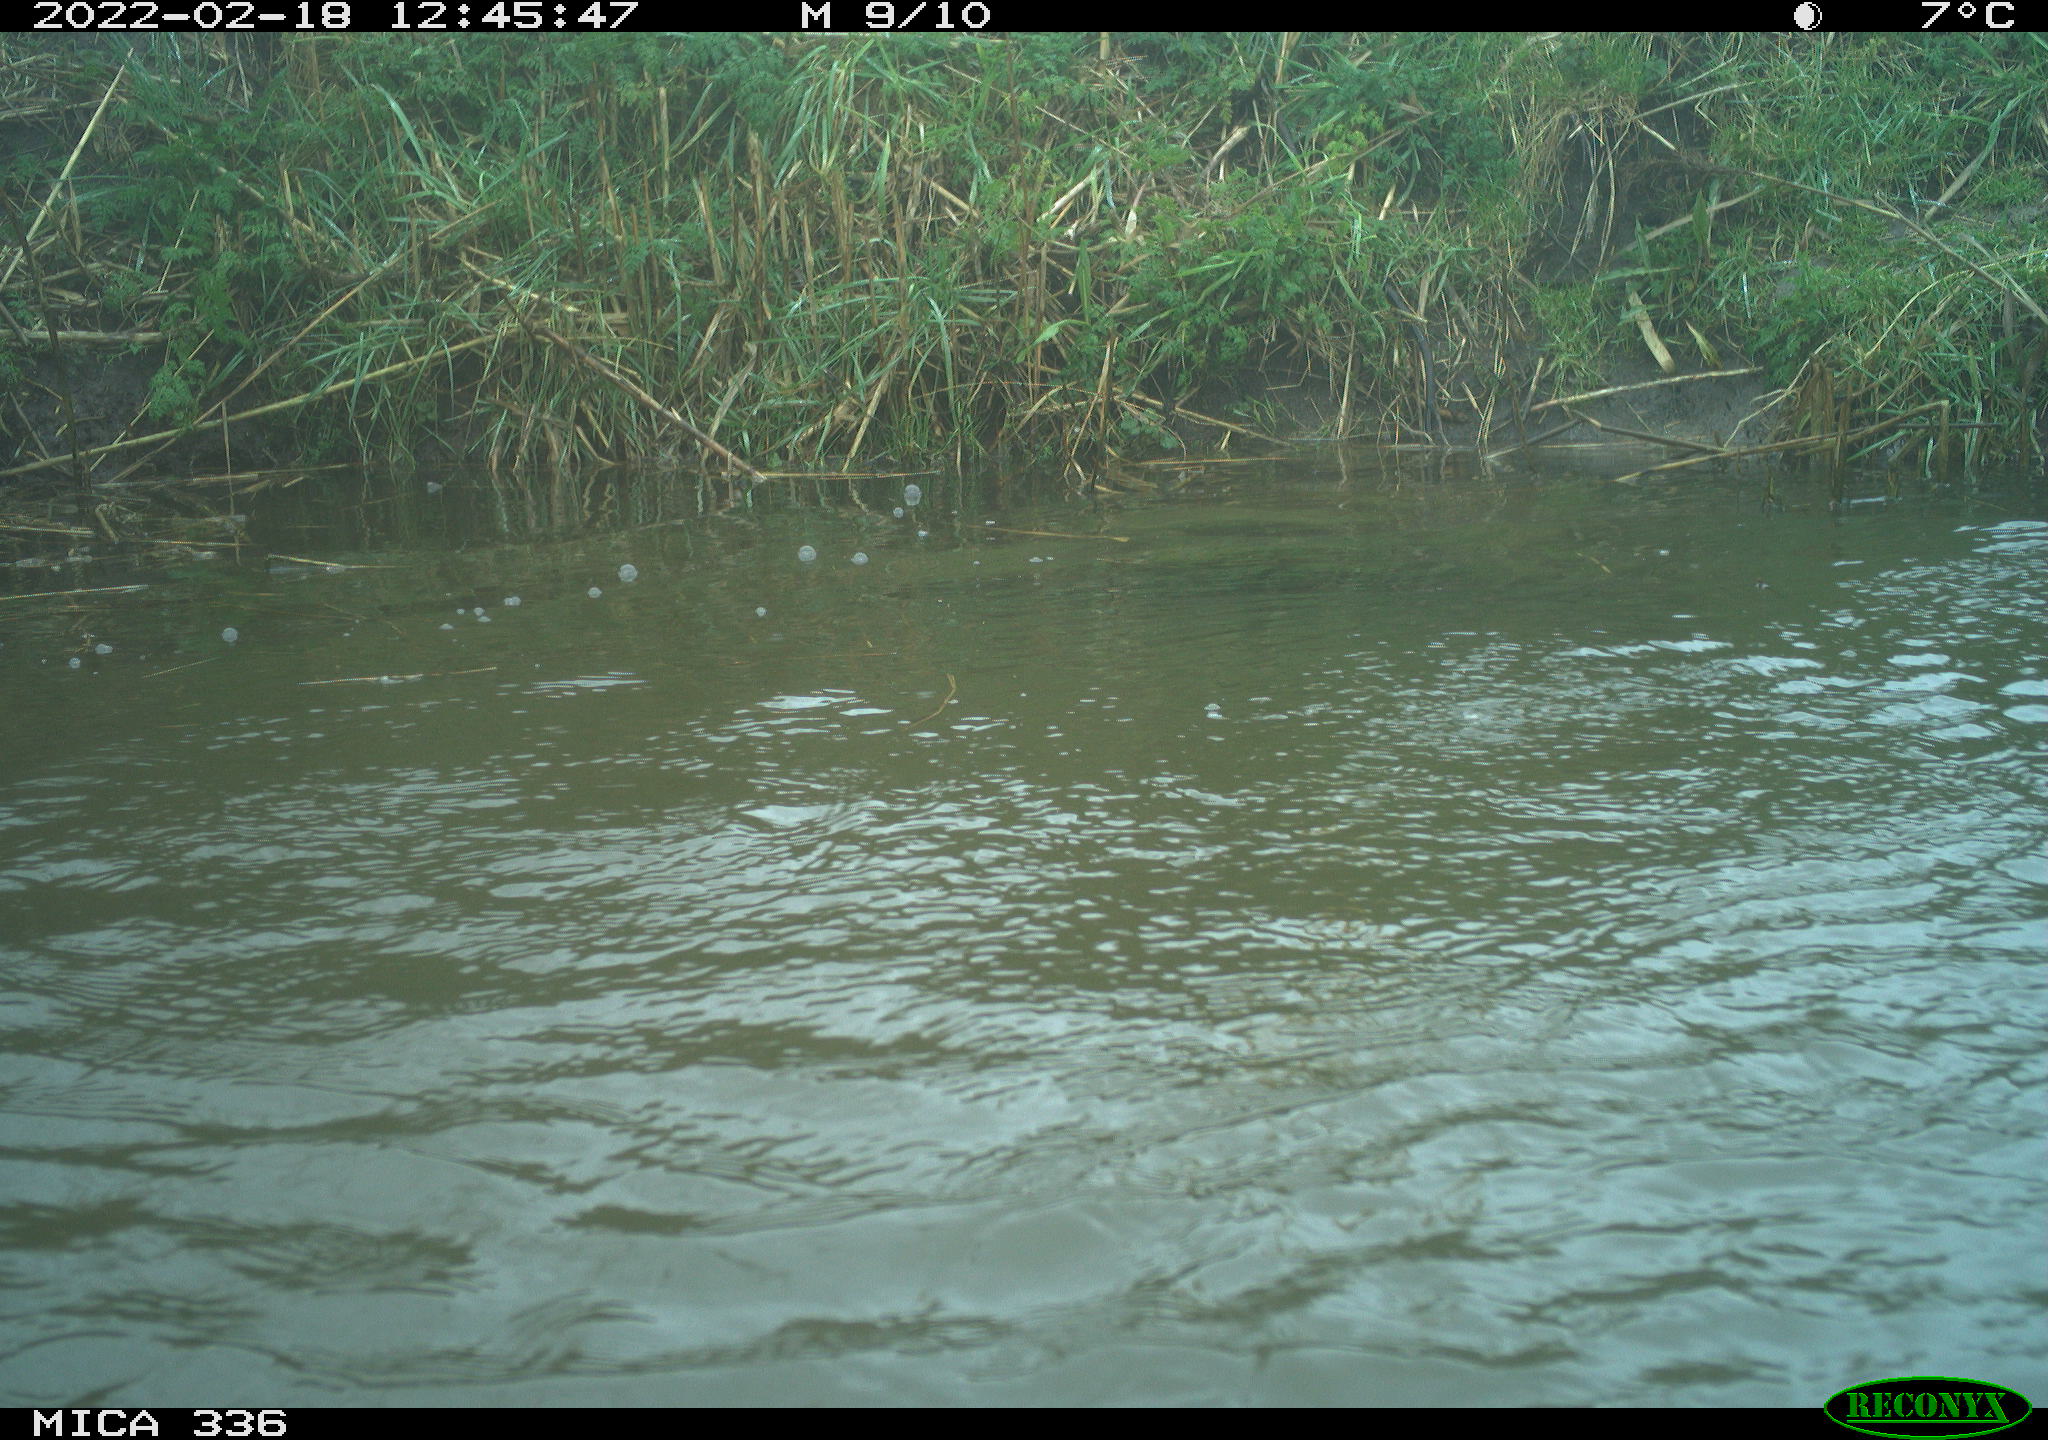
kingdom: Animalia
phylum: Chordata
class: Aves
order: Suliformes
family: Phalacrocoracidae
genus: Phalacrocorax
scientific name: Phalacrocorax carbo
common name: Great cormorant
